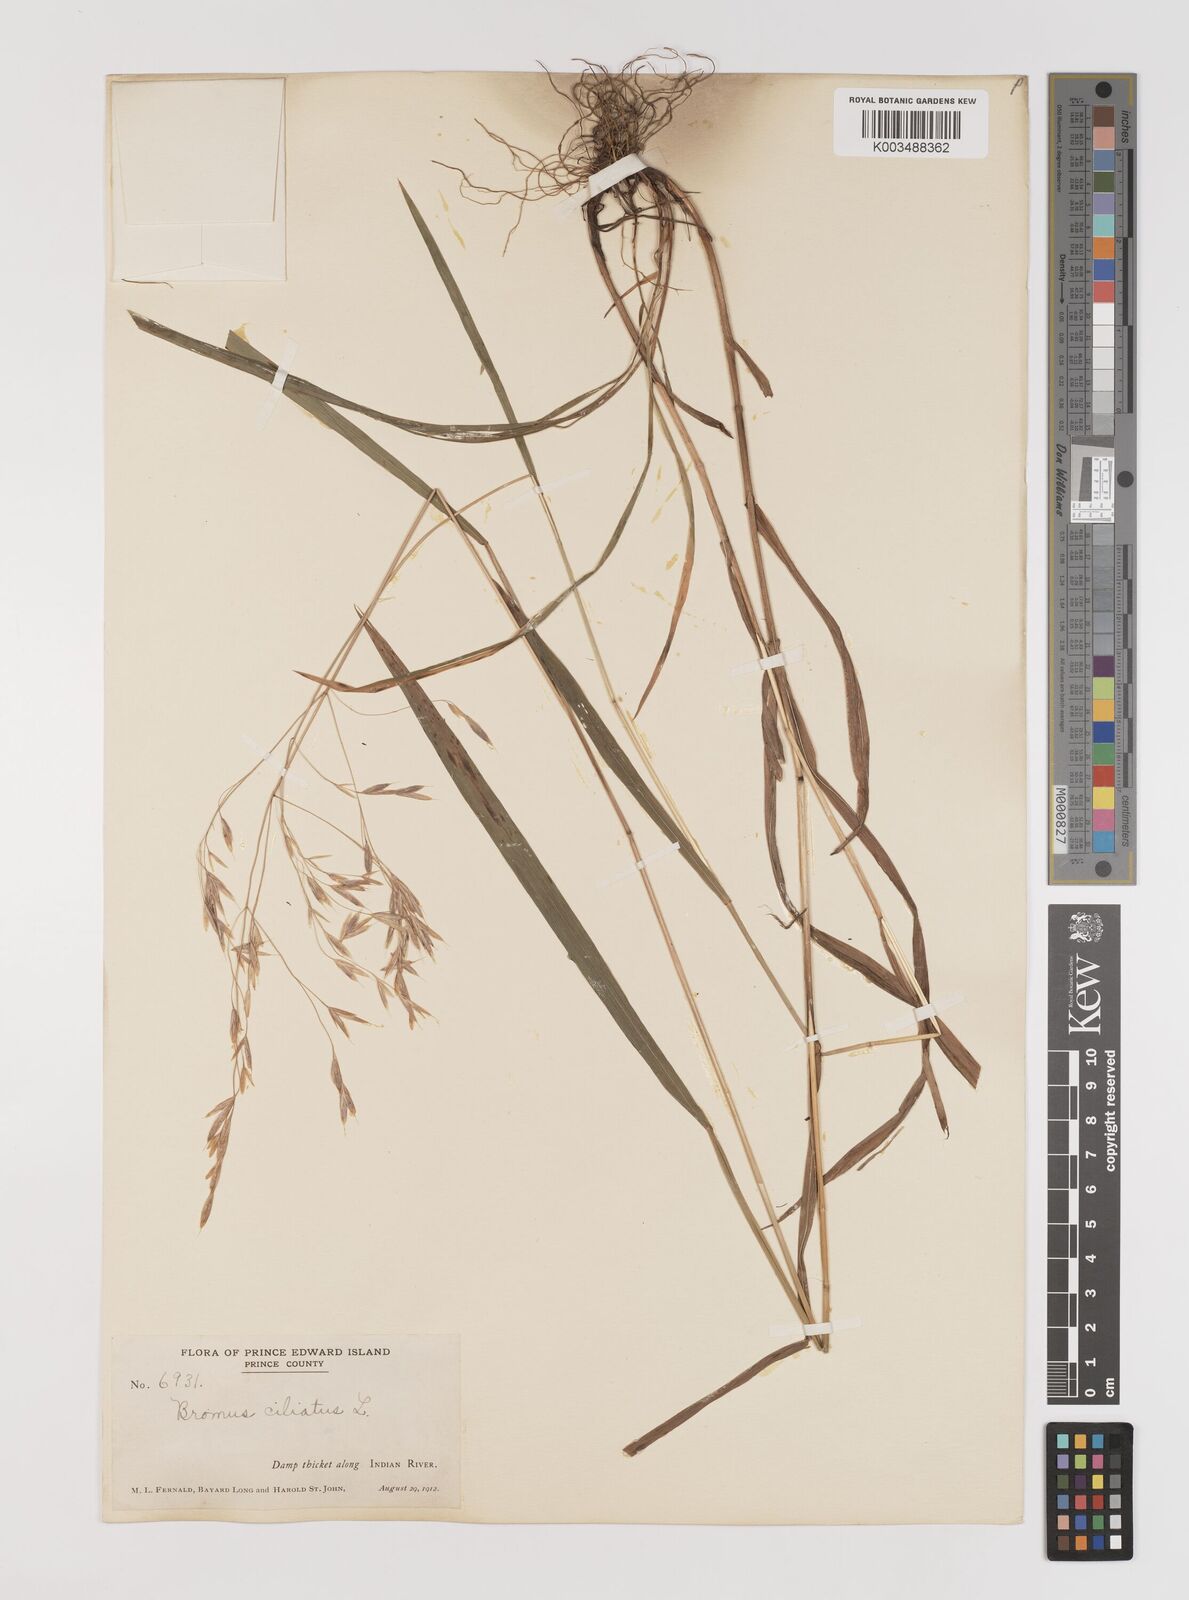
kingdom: Plantae
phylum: Tracheophyta
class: Liliopsida
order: Poales
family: Poaceae
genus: Bromus
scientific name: Bromus ciliatus
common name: Fringe brome
